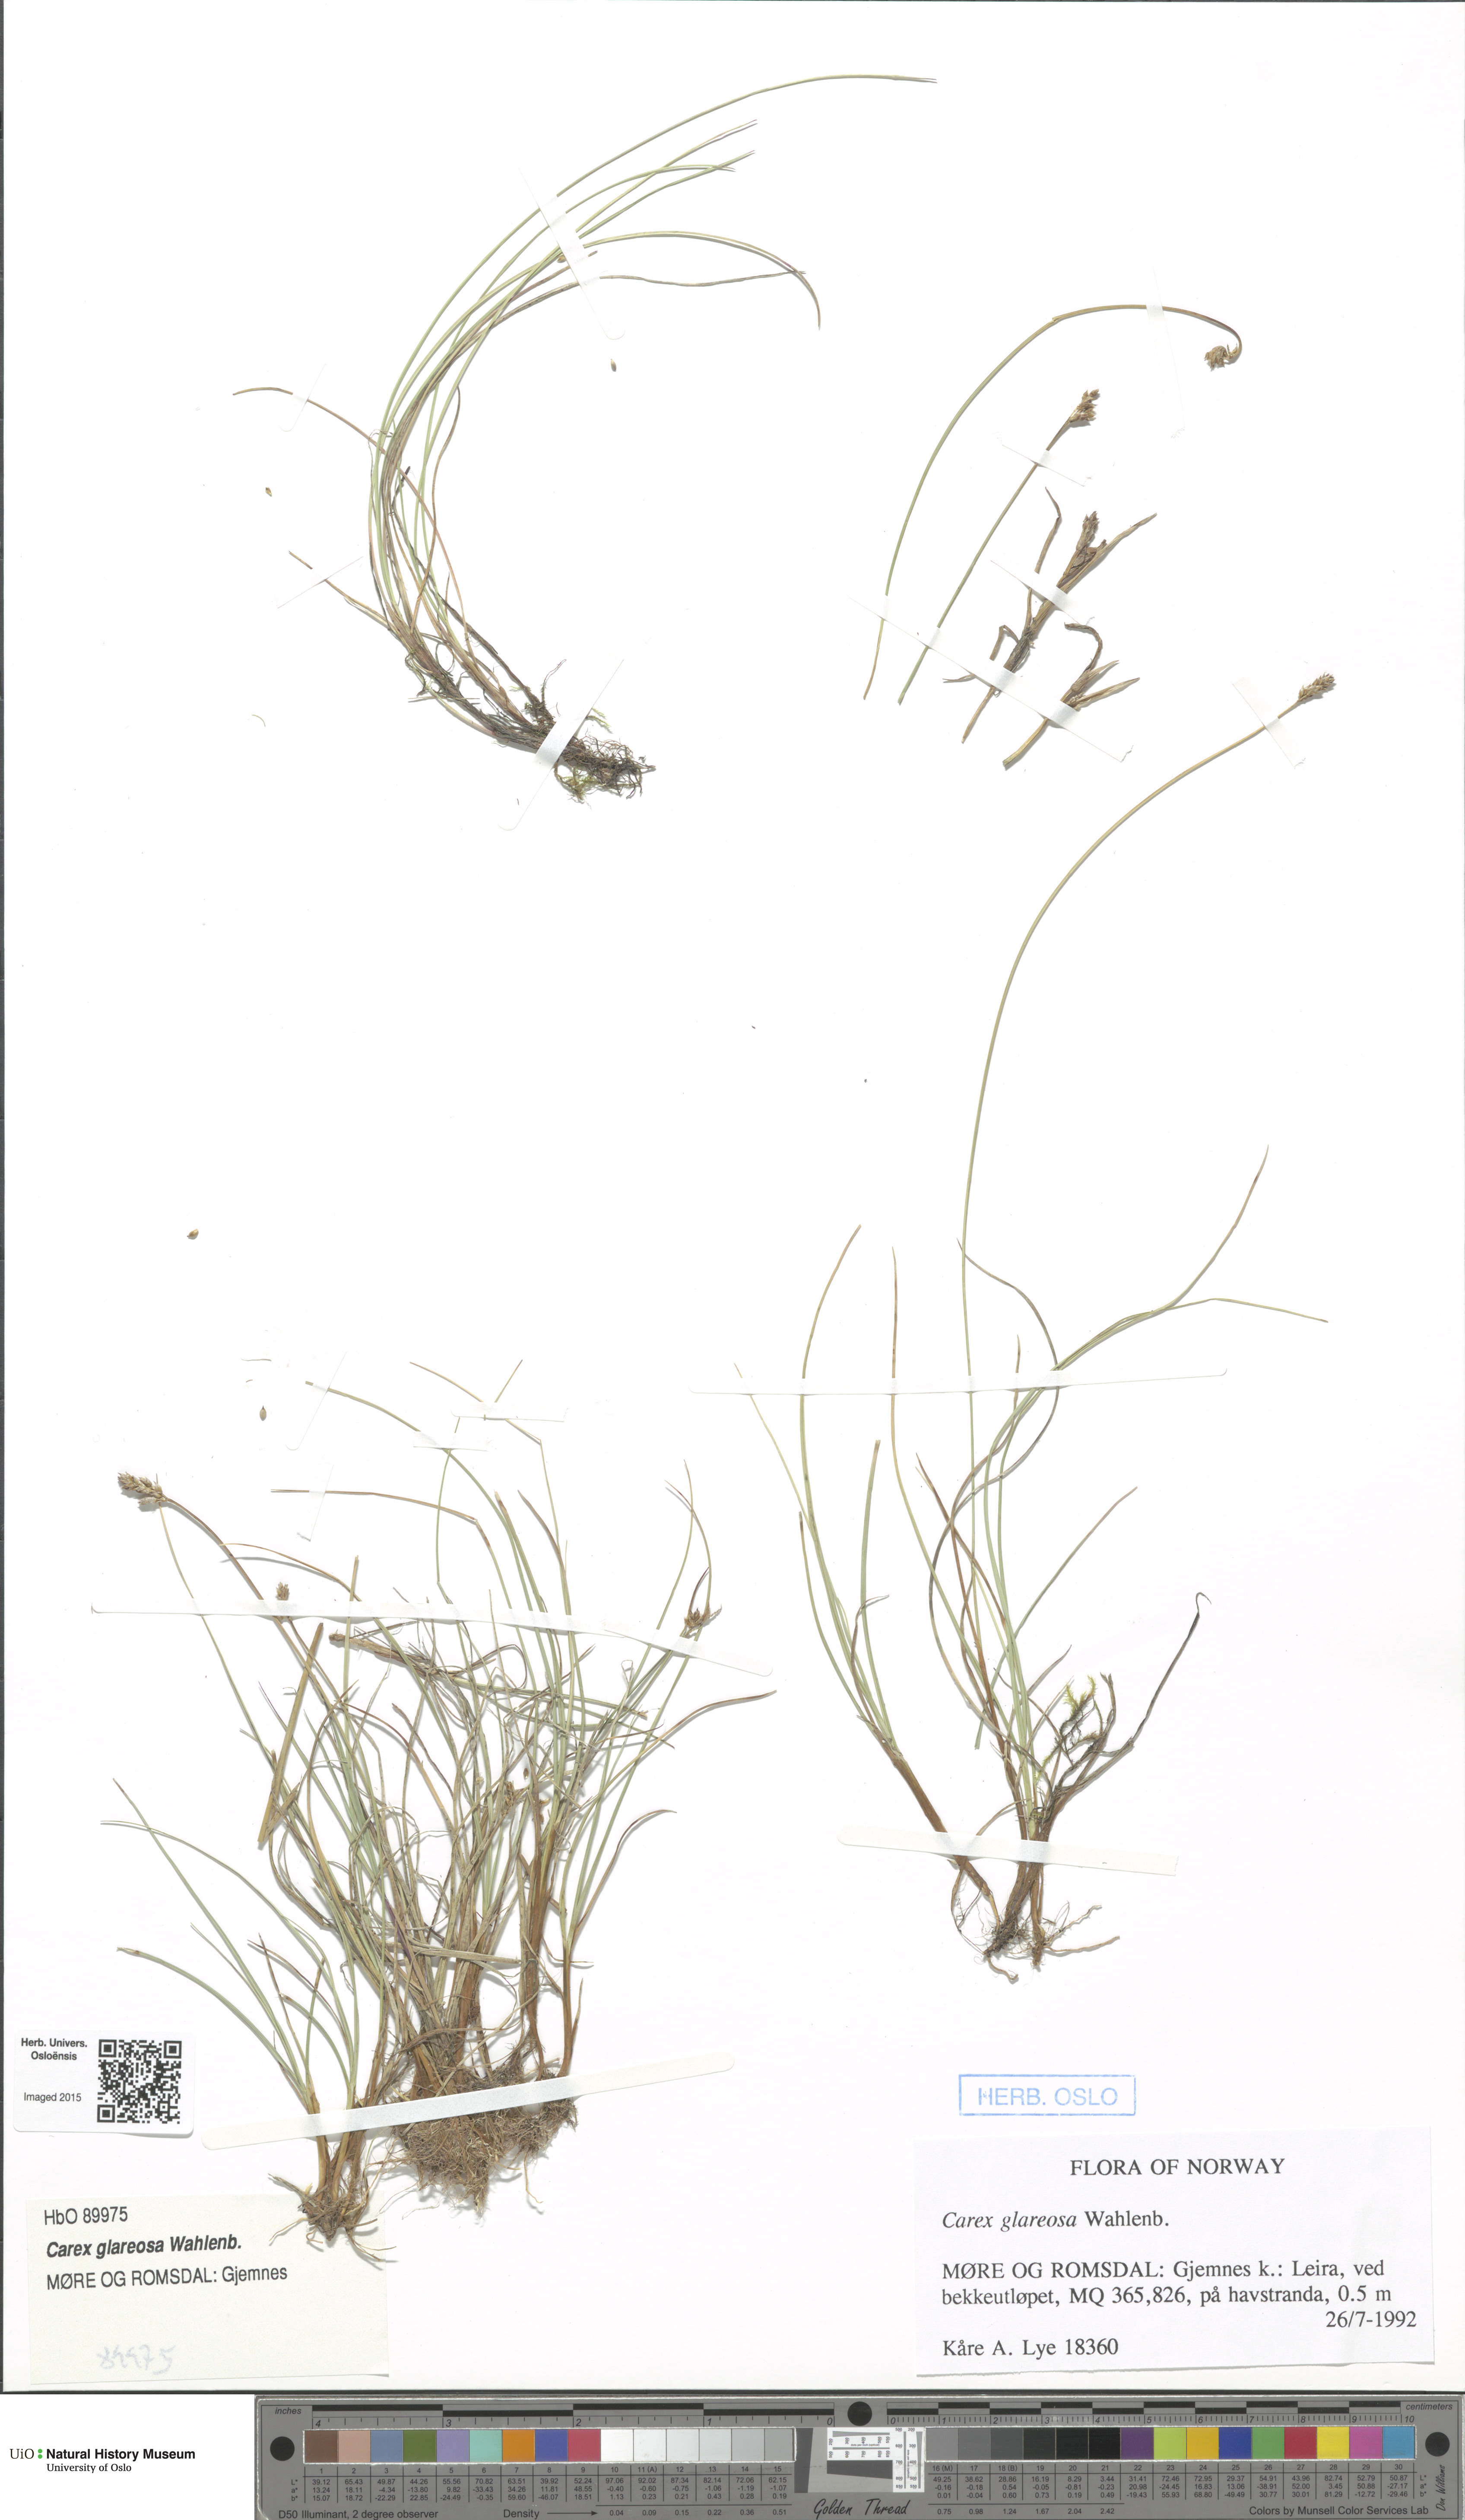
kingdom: Plantae
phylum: Tracheophyta
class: Liliopsida
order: Poales
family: Cyperaceae
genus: Carex
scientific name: Carex glareosa
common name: Clustered sedge
